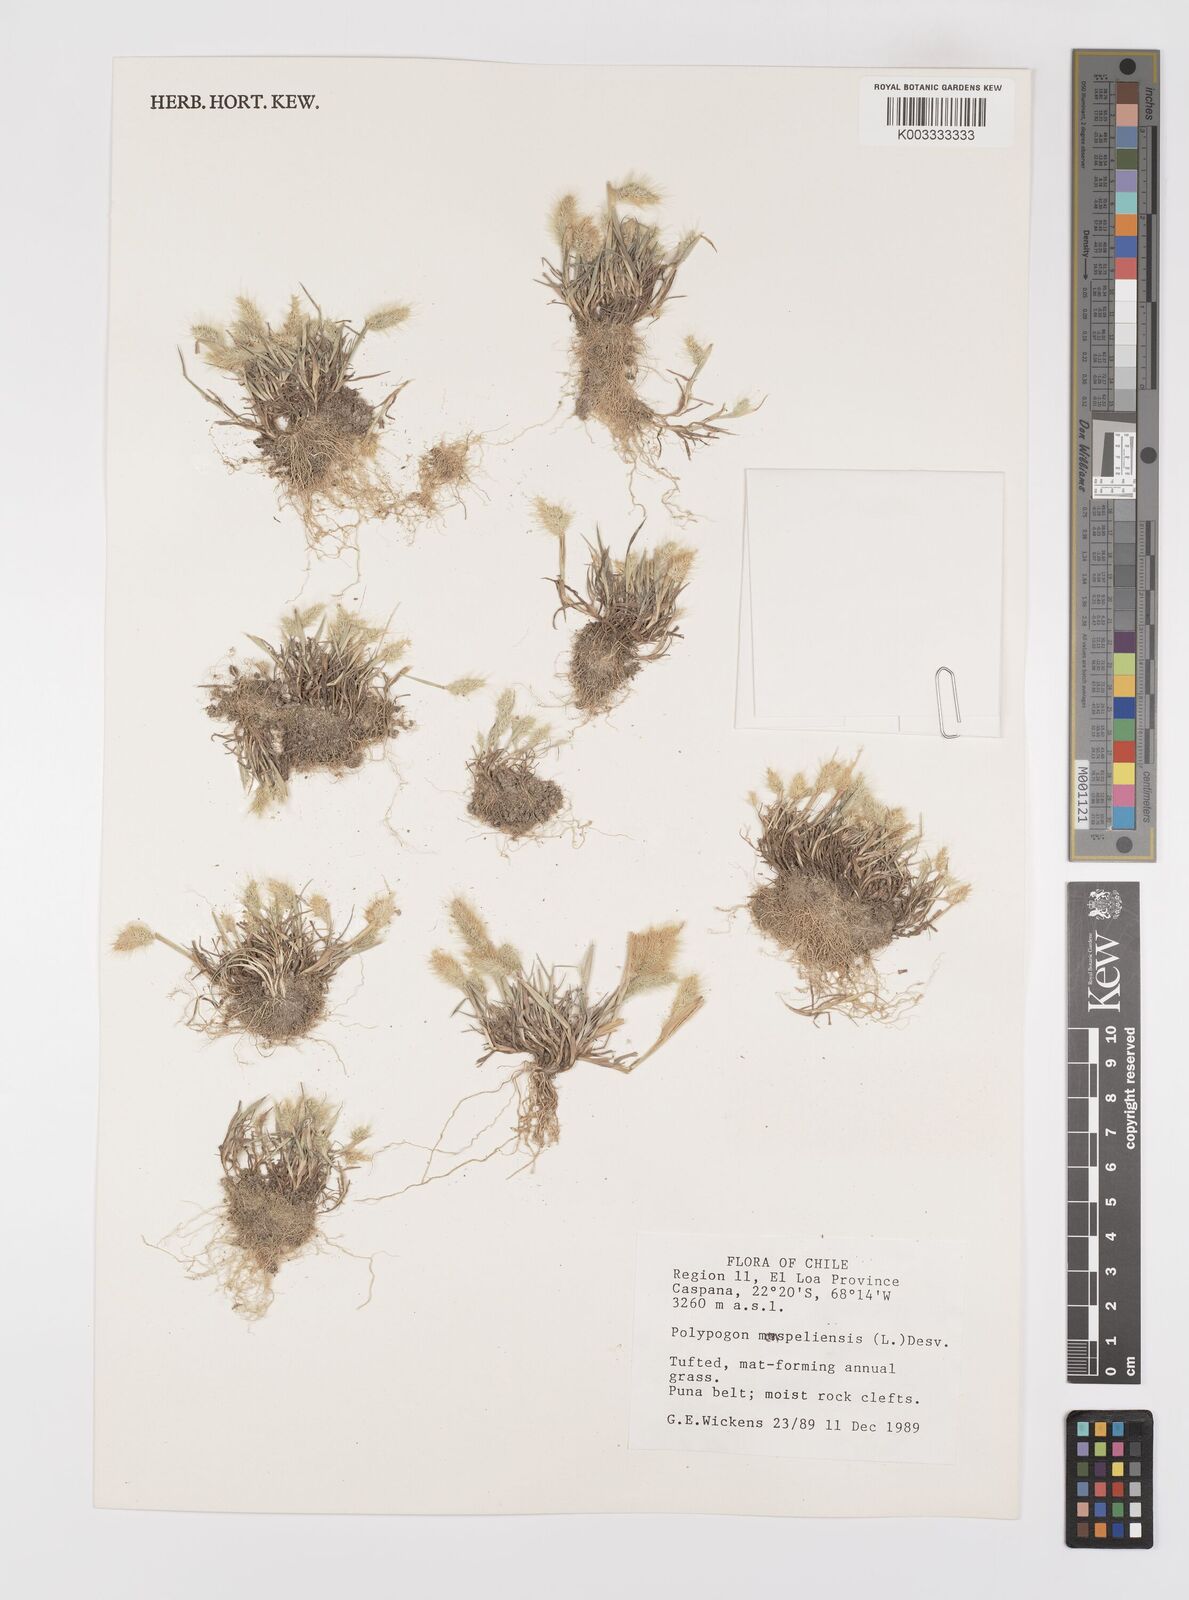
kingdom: Plantae
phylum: Tracheophyta
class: Liliopsida
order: Poales
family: Poaceae
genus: Polypogon
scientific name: Polypogon monspeliensis
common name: Annual rabbitsfoot grass
